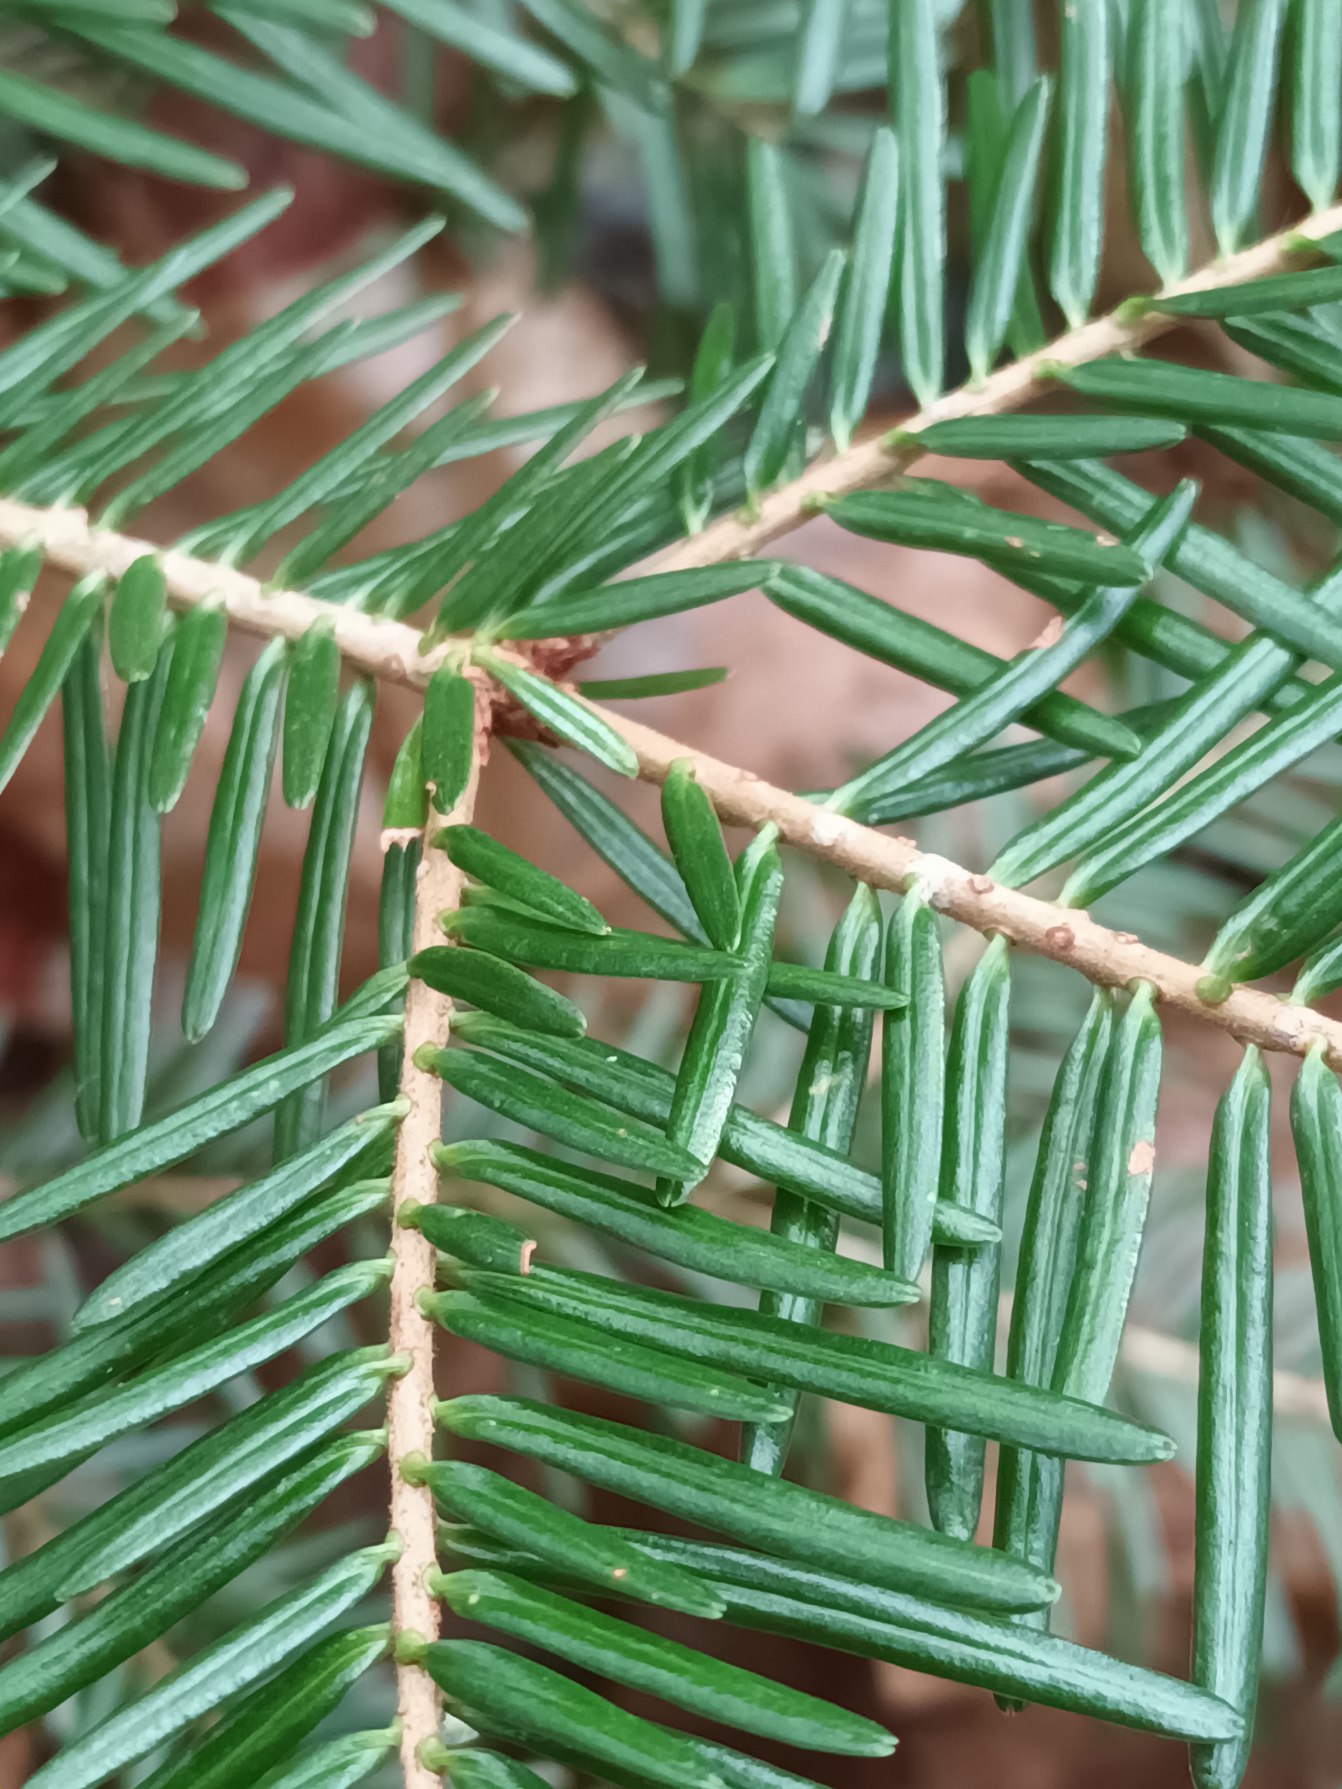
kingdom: Plantae
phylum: Tracheophyta
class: Pinopsida
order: Pinales
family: Pinaceae
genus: Abies
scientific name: Abies grandis
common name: Kæmpegran
